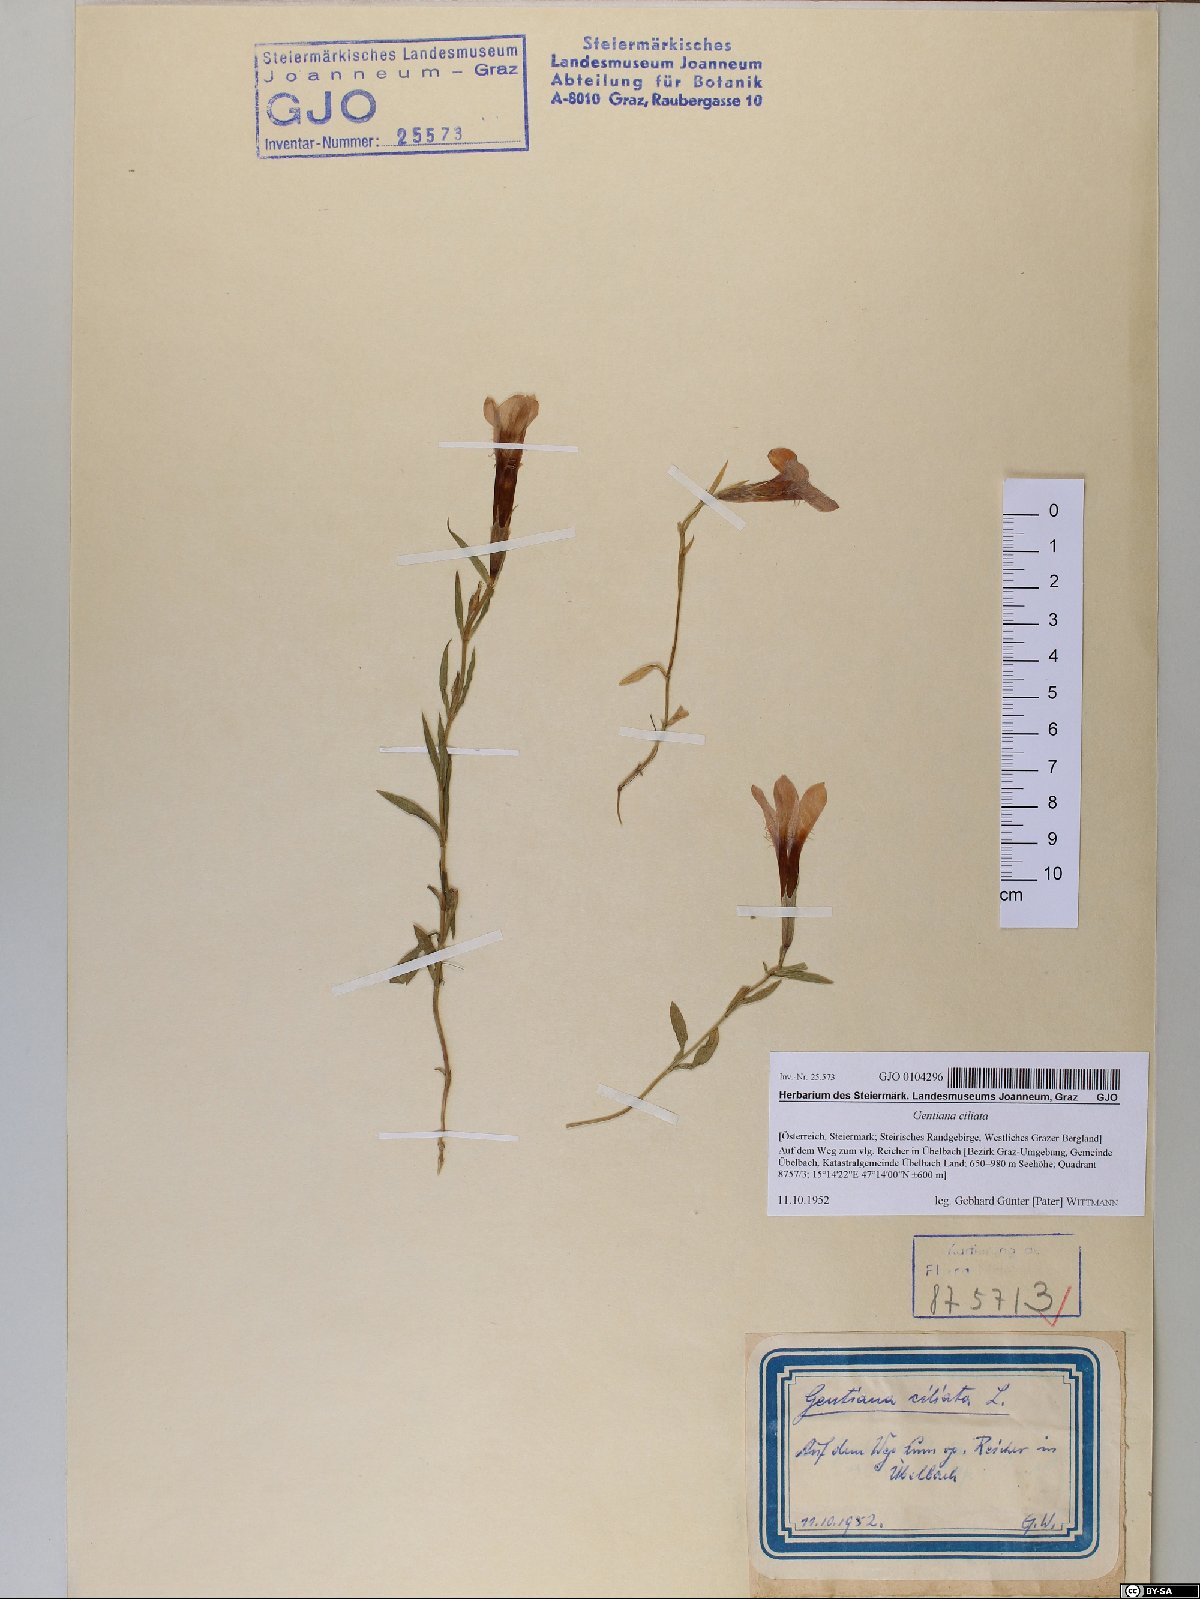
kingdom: Plantae
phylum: Tracheophyta
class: Magnoliopsida
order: Gentianales
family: Gentianaceae
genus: Gentianopsis
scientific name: Gentianopsis ciliata
